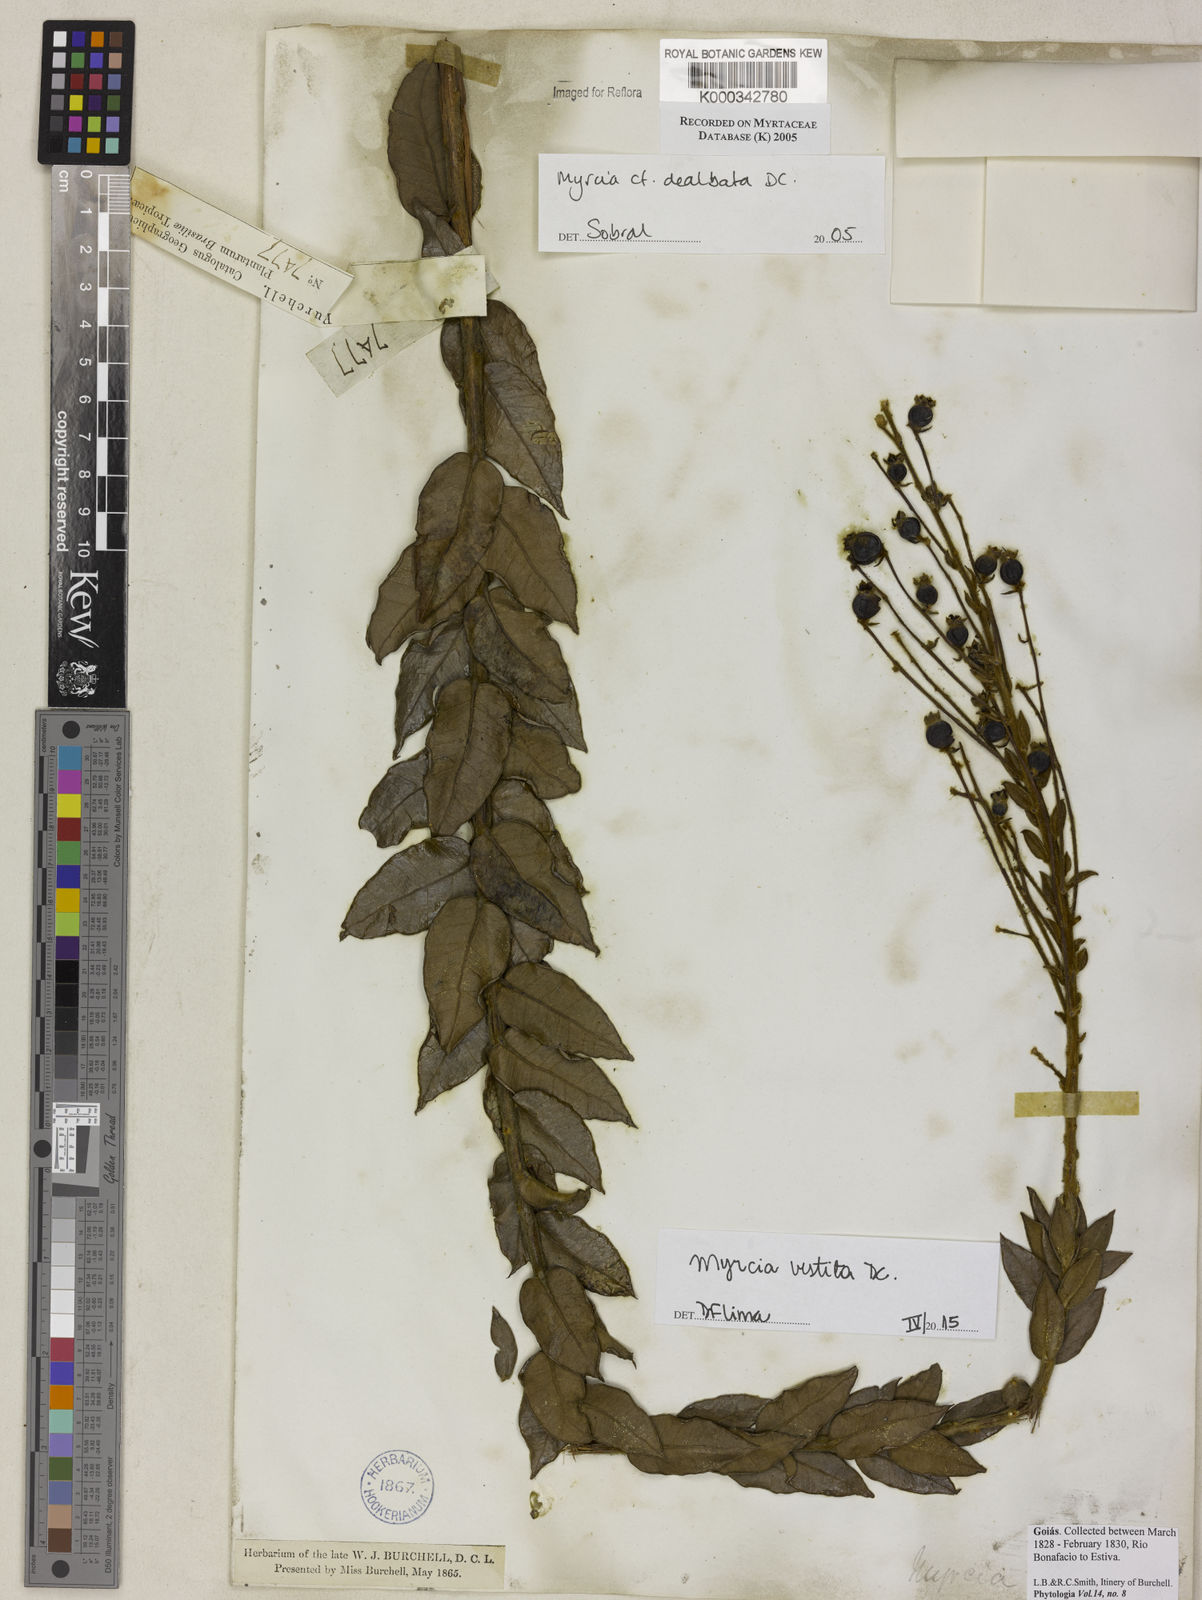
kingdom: Plantae
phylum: Tracheophyta
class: Magnoliopsida
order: Myrtales
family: Myrtaceae
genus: Myrcia
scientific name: Myrcia dealbata
